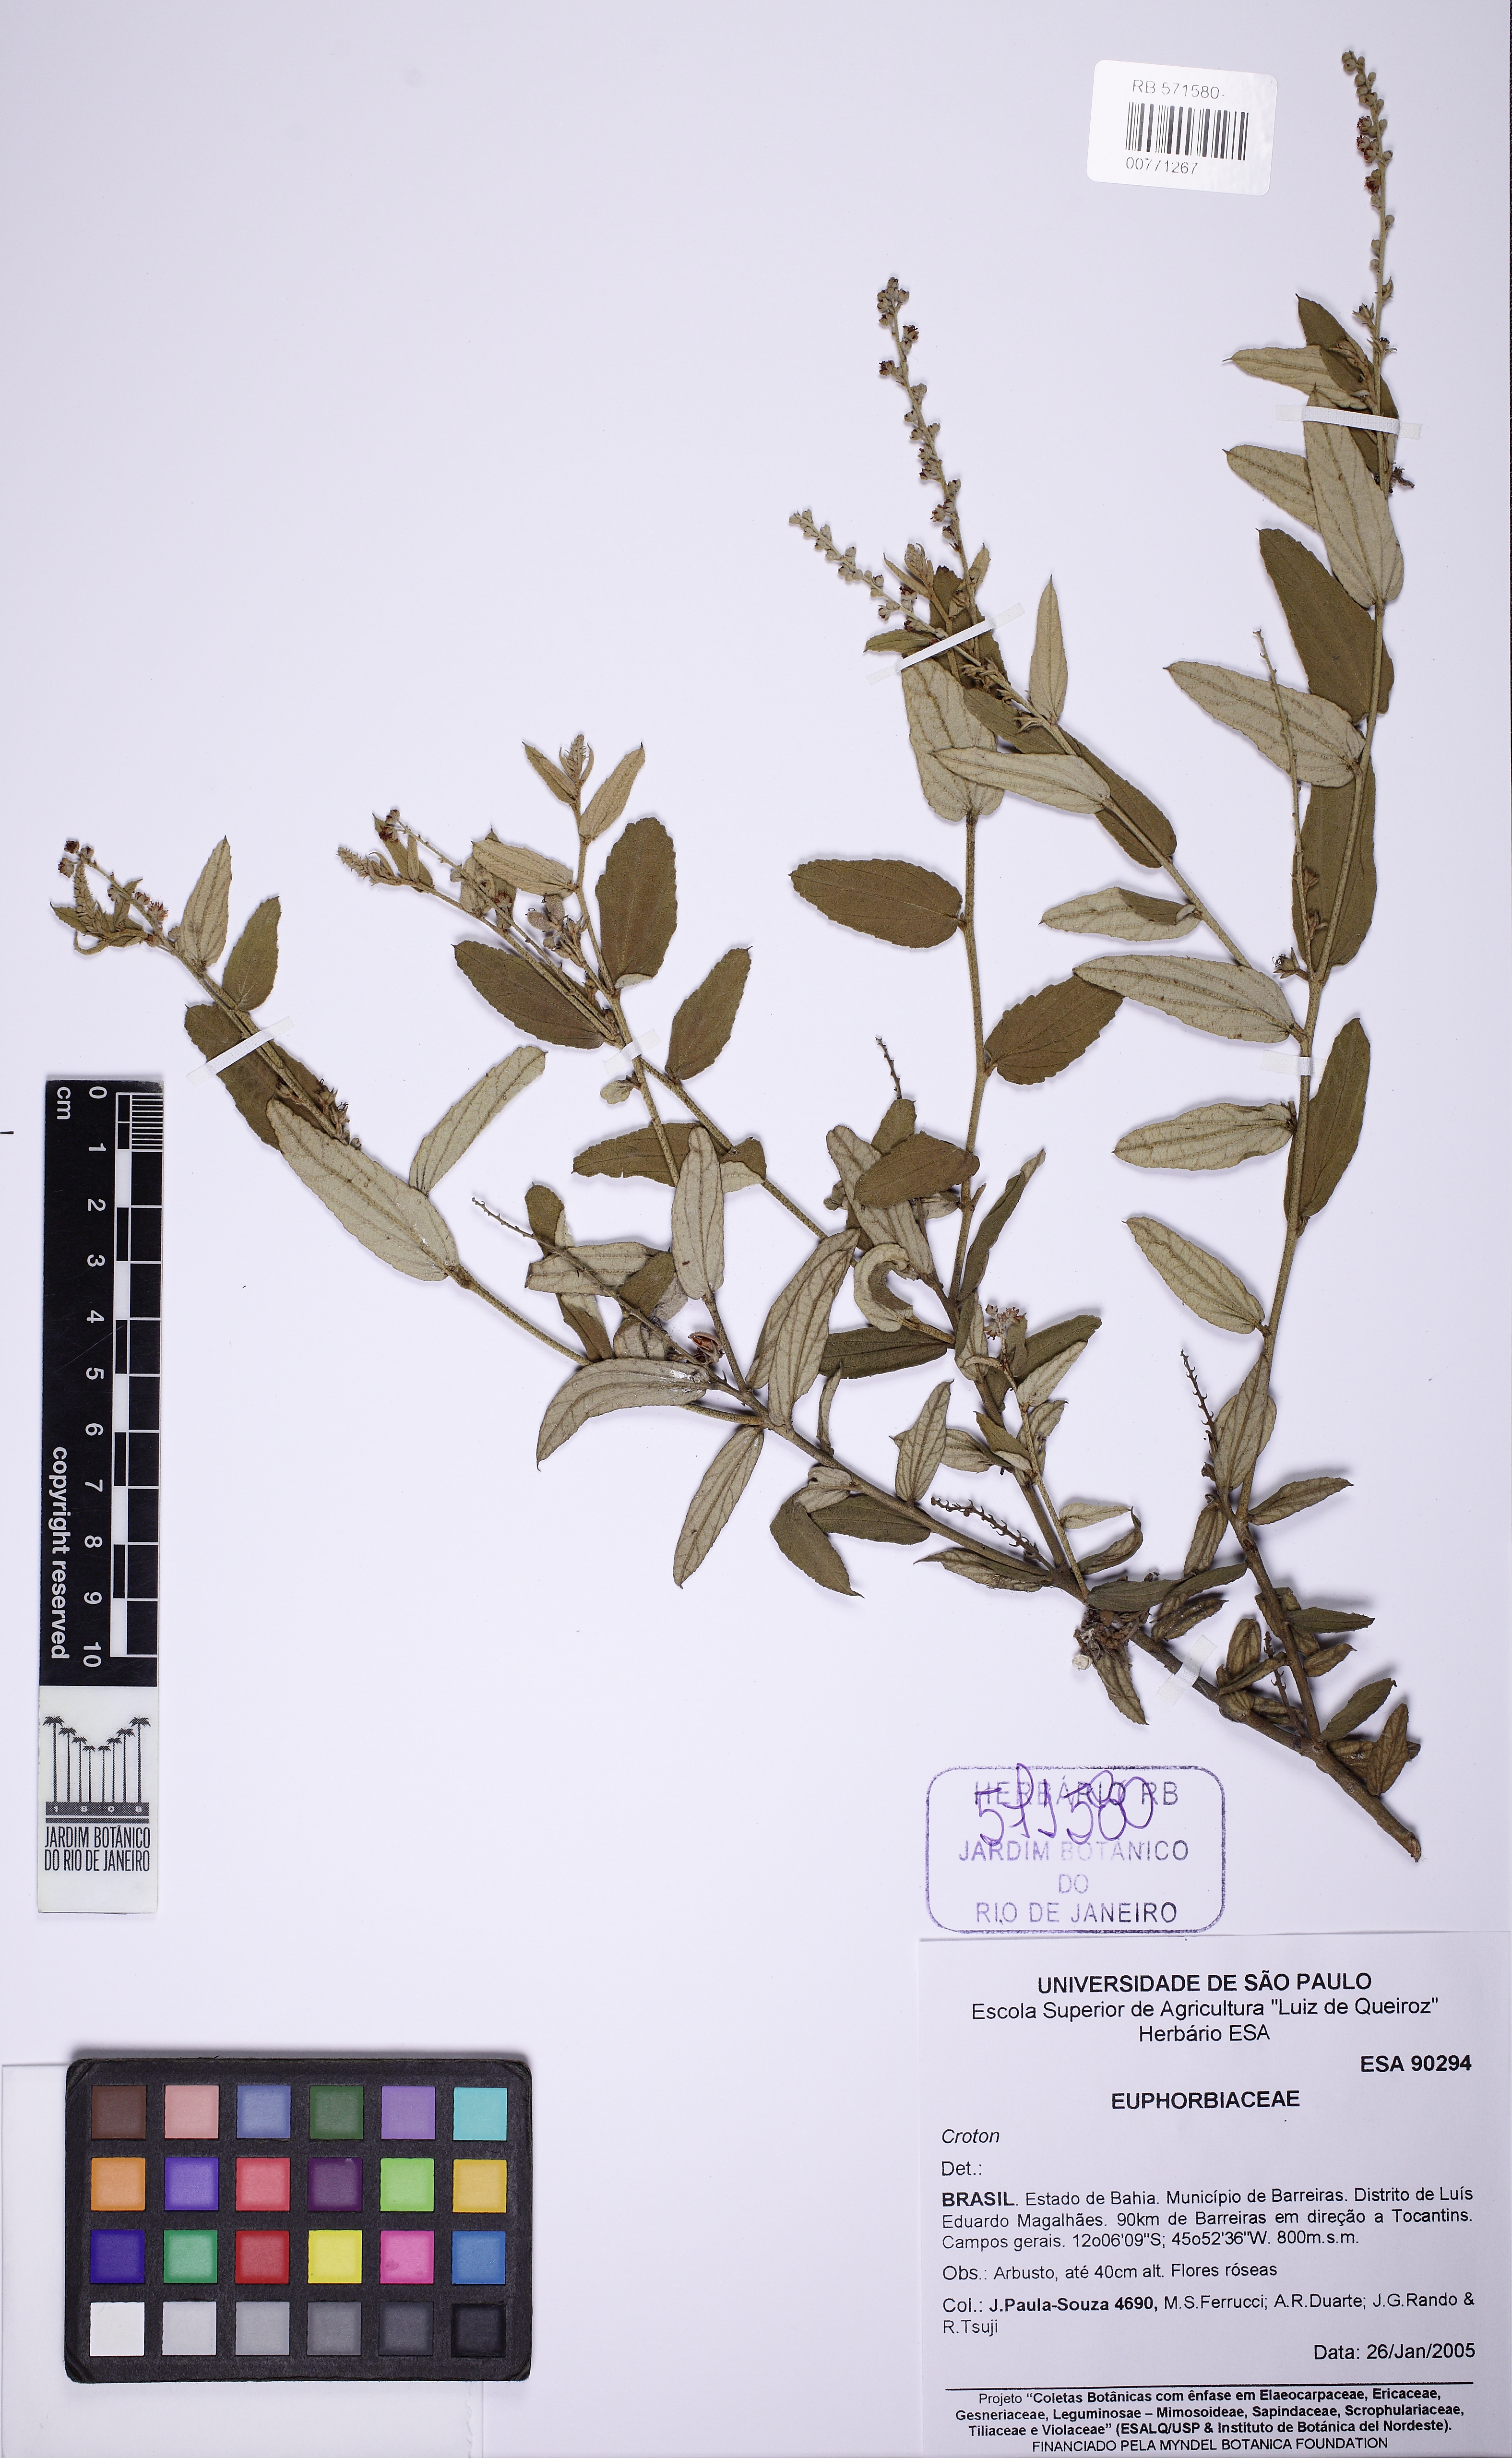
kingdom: Plantae
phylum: Tracheophyta
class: Magnoliopsida
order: Malpighiales
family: Euphorbiaceae
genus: Croton
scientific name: Croton agoensis
